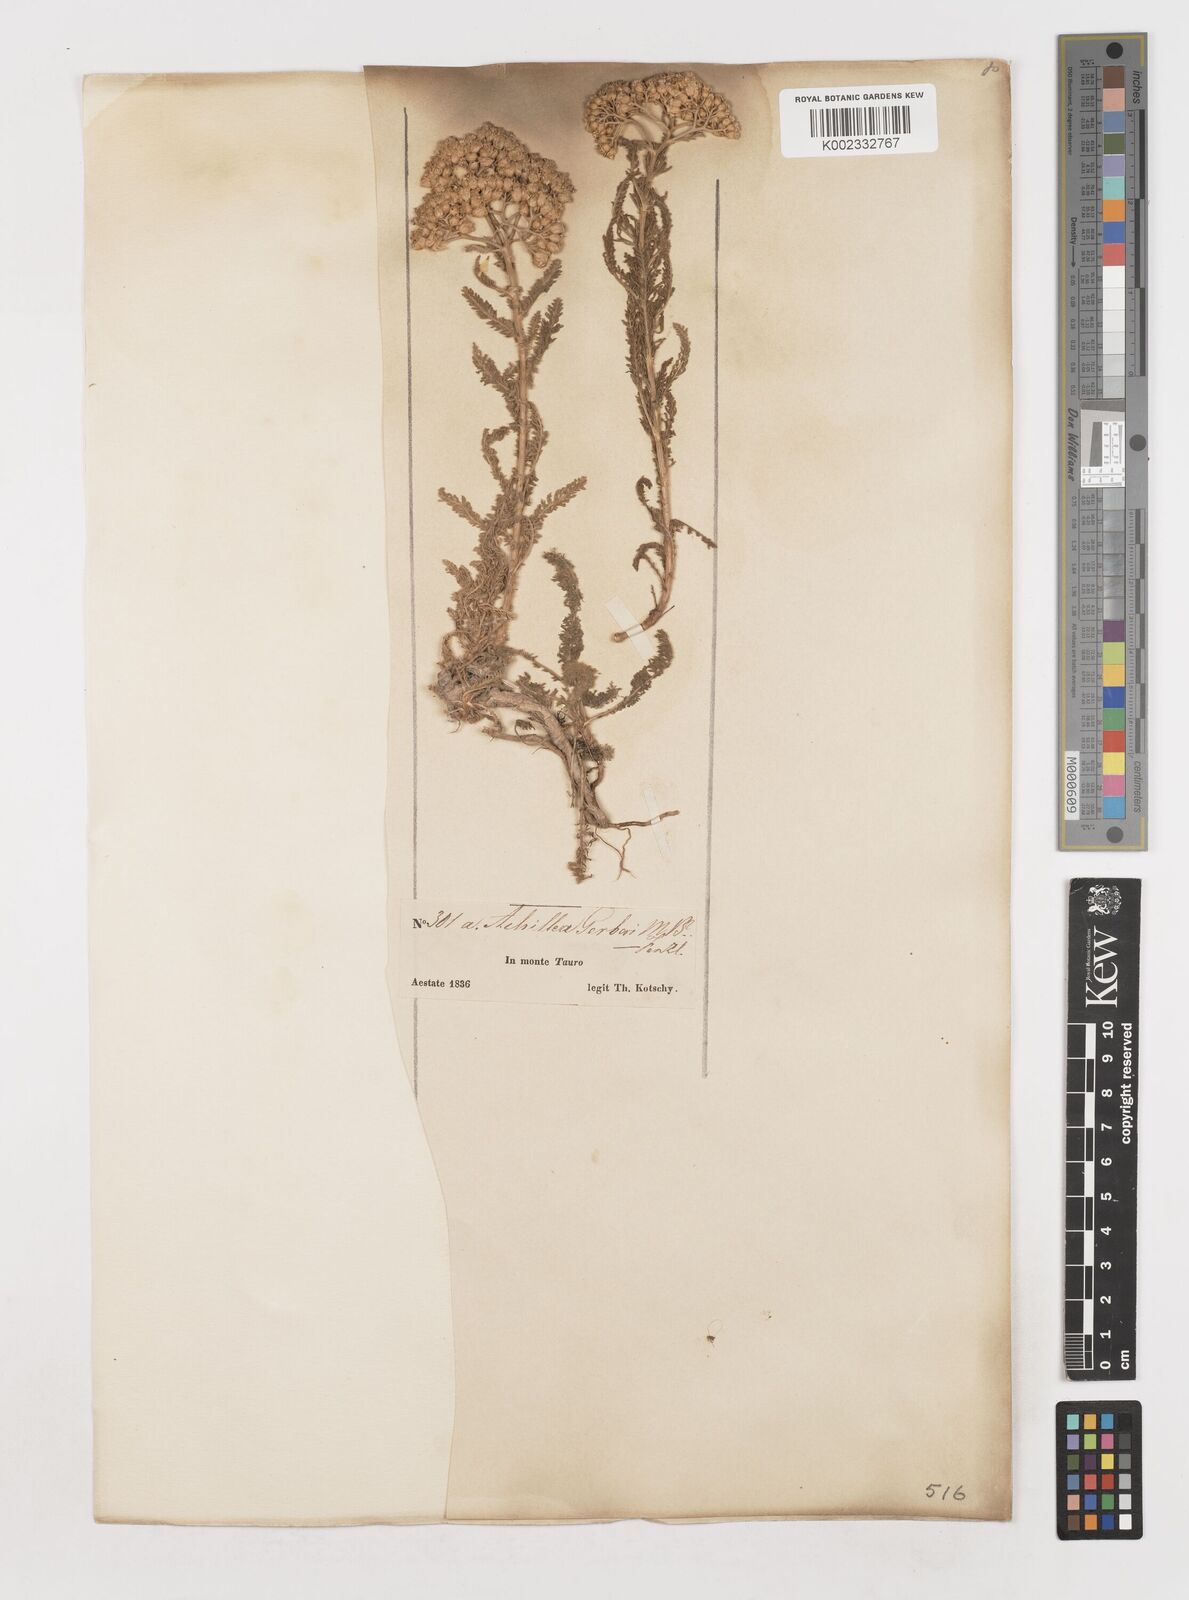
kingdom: Plantae
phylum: Tracheophyta
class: Magnoliopsida
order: Asterales
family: Asteraceae
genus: Achillea
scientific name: Achillea micrantha
